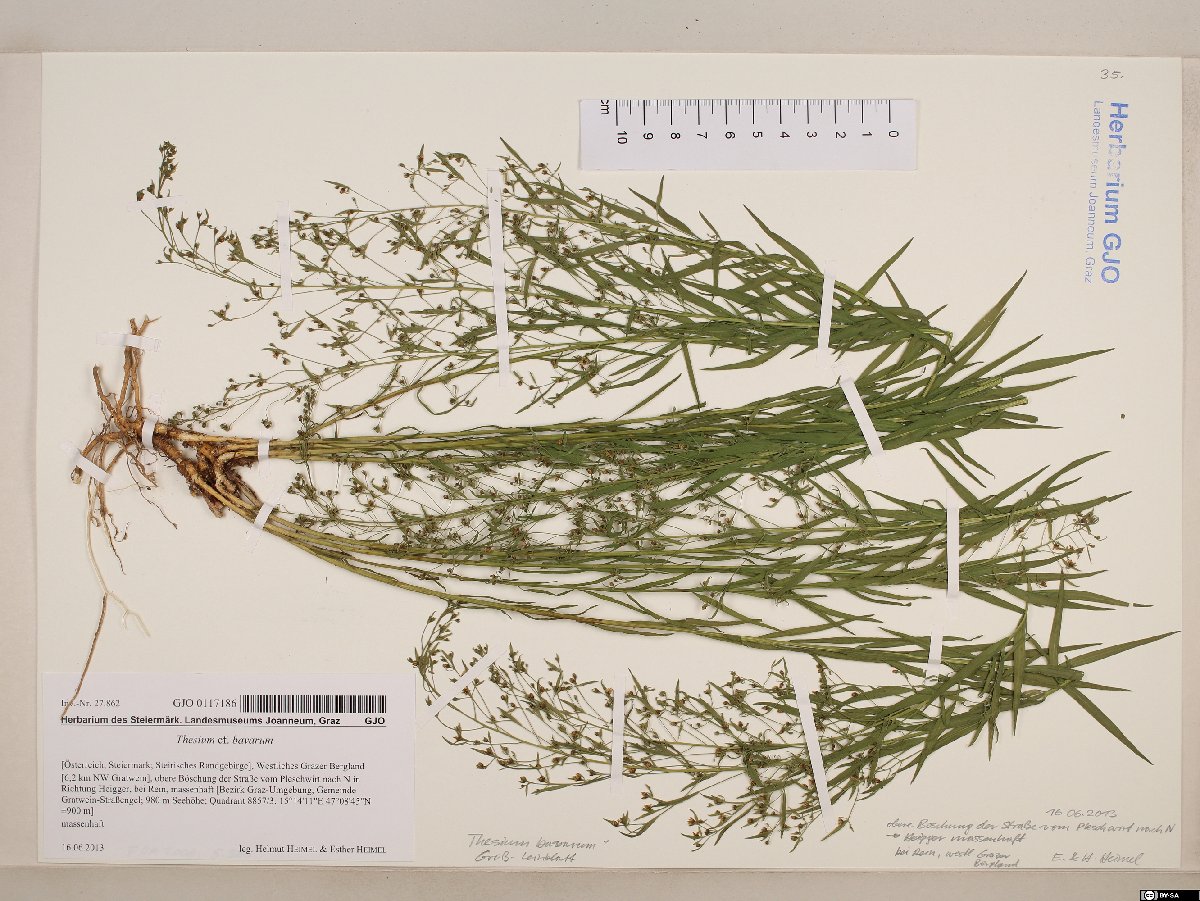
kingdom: Plantae
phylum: Tracheophyta
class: Magnoliopsida
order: Santalales
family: Thesiaceae
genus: Thesium
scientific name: Thesium bavarum
